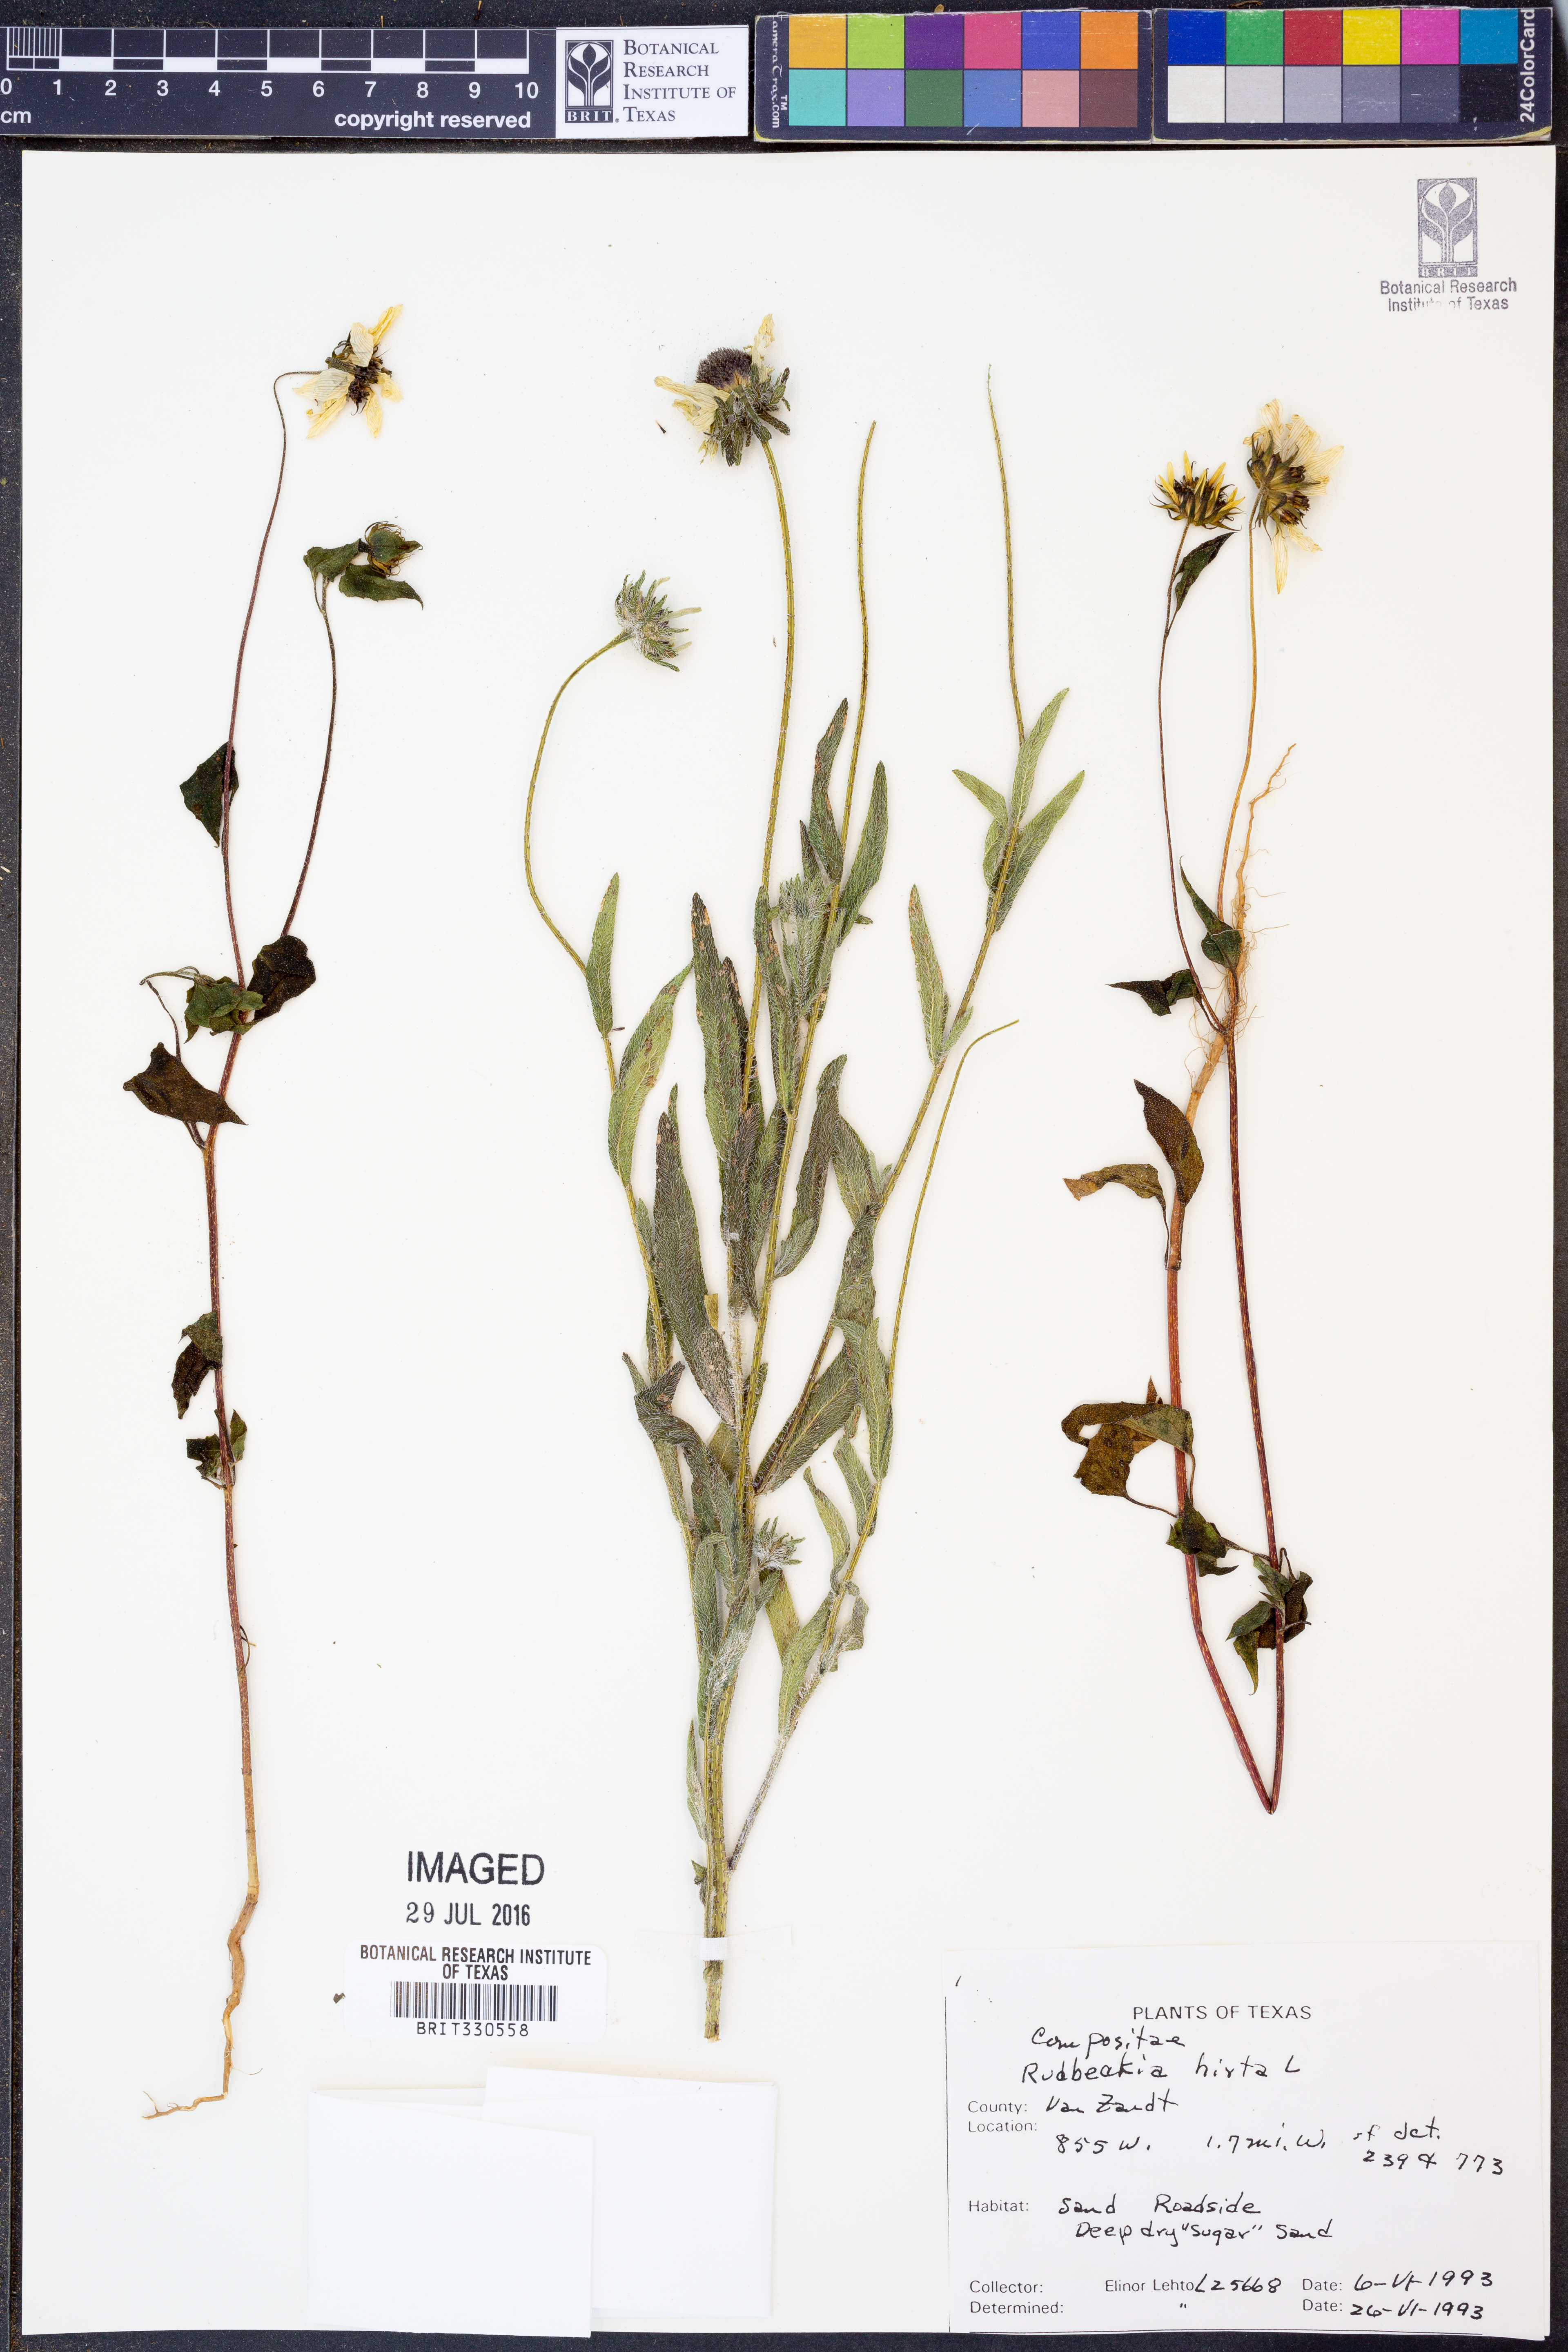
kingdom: Plantae
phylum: Tracheophyta
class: Magnoliopsida
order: Asterales
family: Asteraceae
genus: Rudbeckia
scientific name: Rudbeckia hirta
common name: Black-eyed-susan
